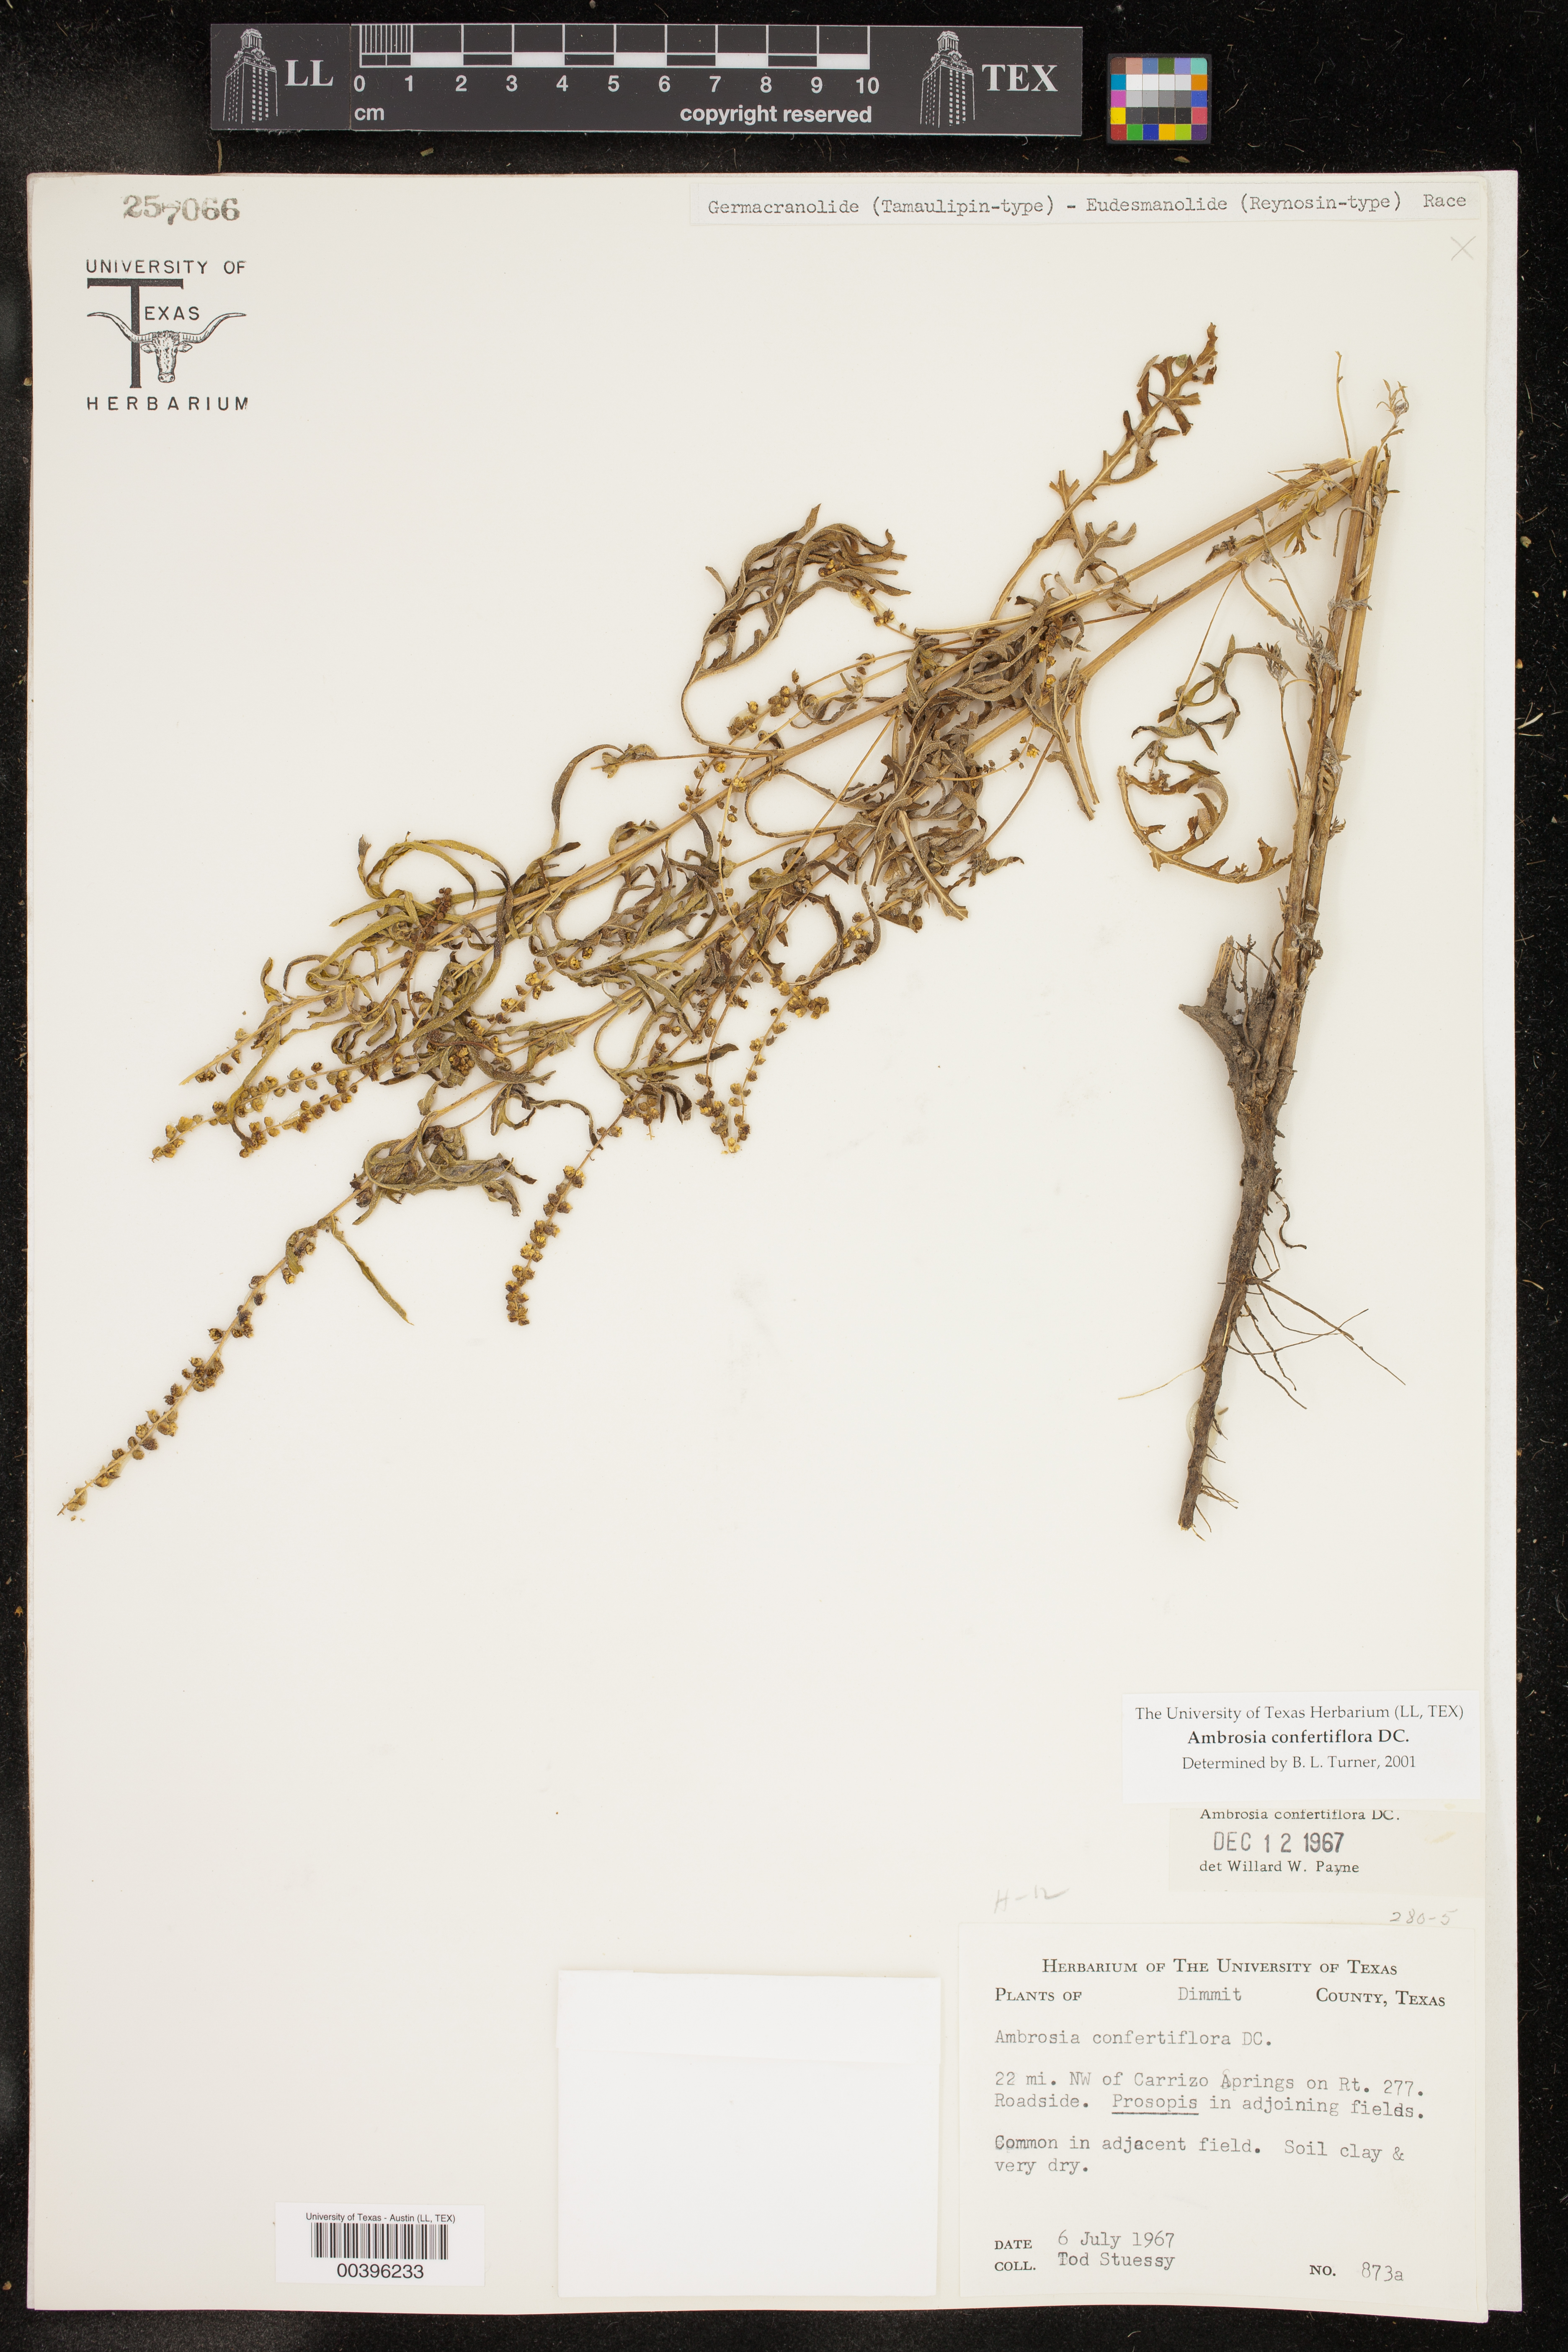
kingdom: Plantae
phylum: Tracheophyta
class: Magnoliopsida
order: Asterales
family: Asteraceae
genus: Ambrosia
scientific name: Ambrosia confertiflora
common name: Bur ragweed
